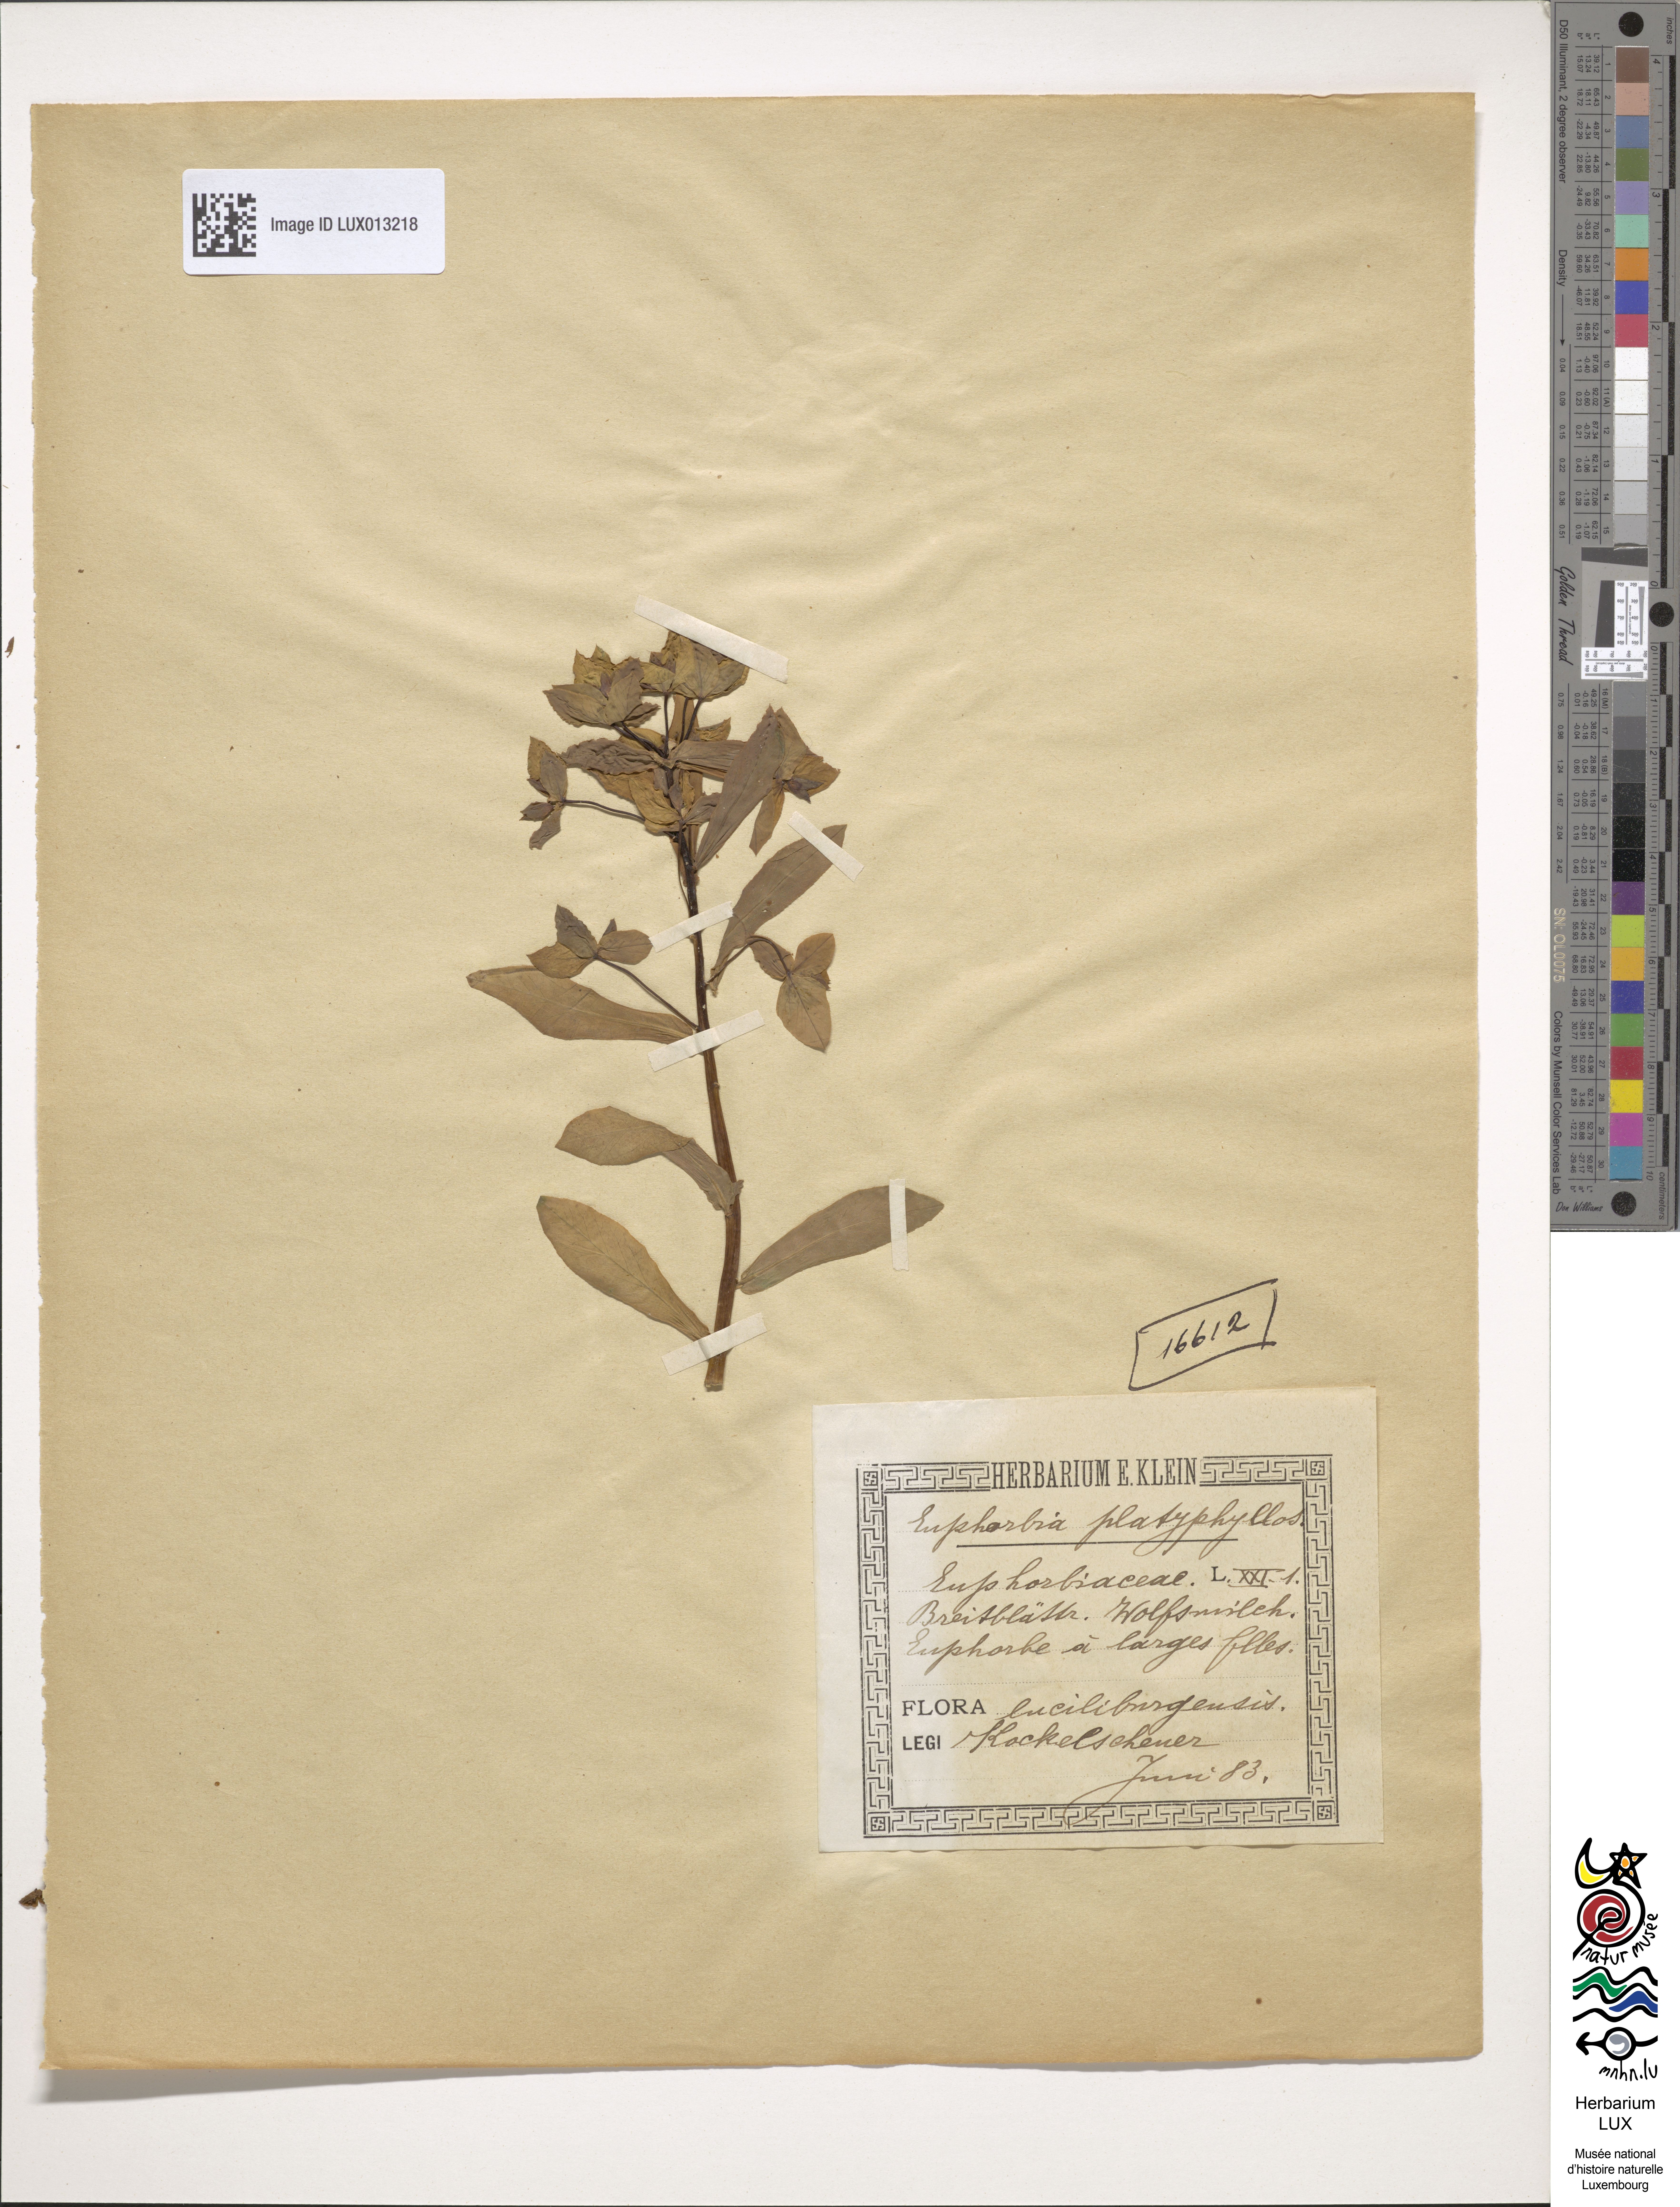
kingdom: Plantae
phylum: Tracheophyta
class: Magnoliopsida
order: Malpighiales
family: Euphorbiaceae
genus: Euphorbia
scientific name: Euphorbia platyphyllos
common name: Broad-leaved spurge
